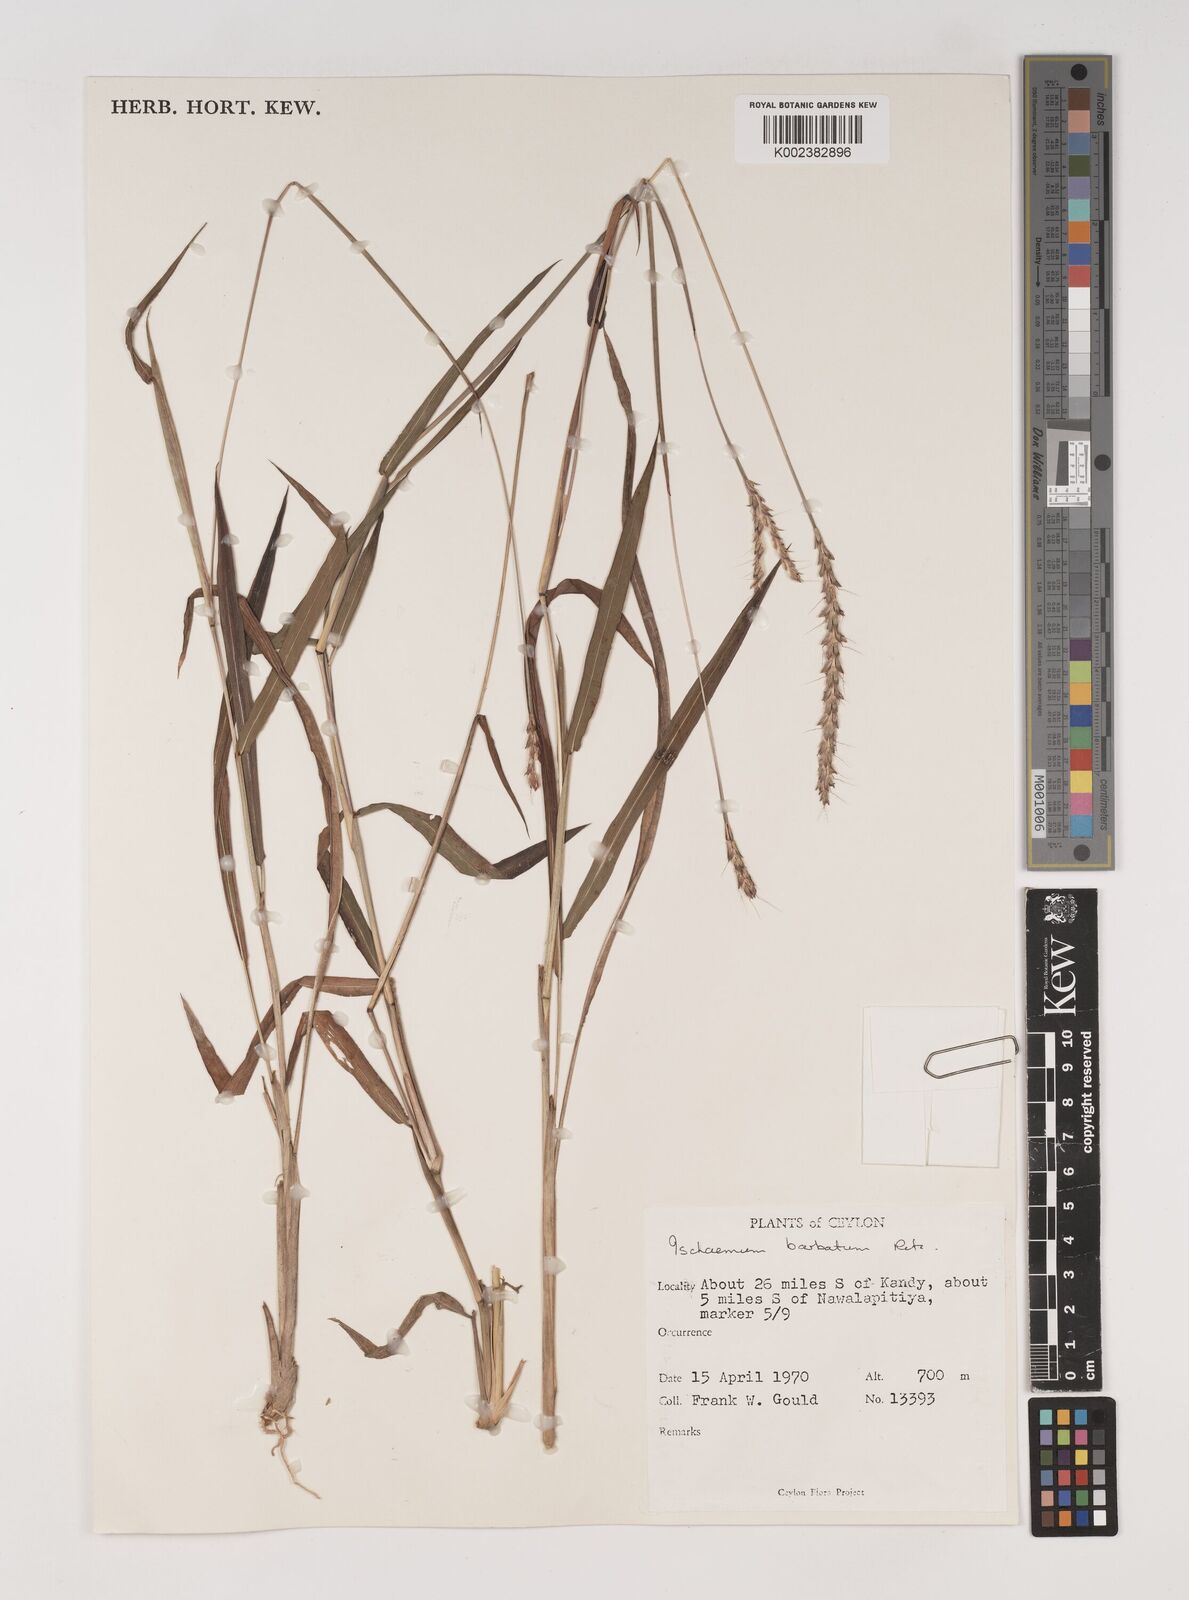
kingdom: Plantae
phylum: Tracheophyta
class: Liliopsida
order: Poales
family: Poaceae
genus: Ischaemum
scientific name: Ischaemum
